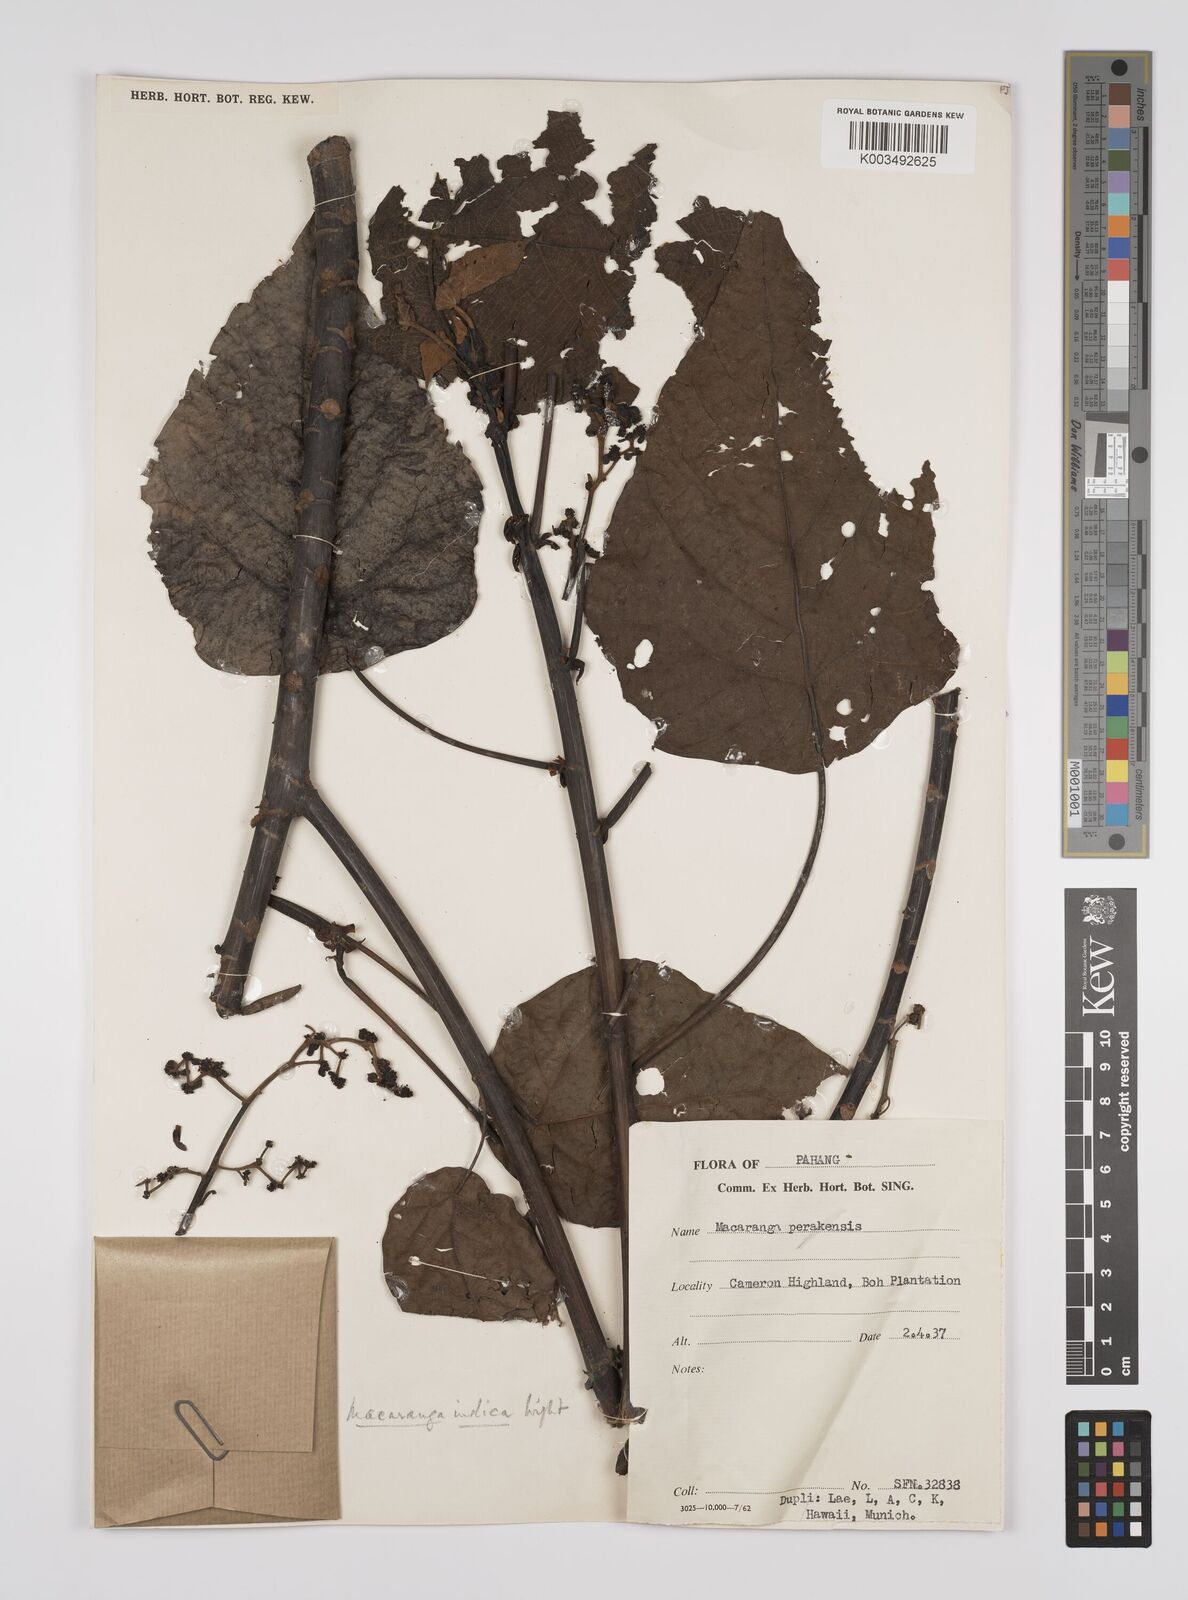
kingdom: Plantae
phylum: Tracheophyta
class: Magnoliopsida
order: Malpighiales
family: Euphorbiaceae
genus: Macaranga
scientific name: Macaranga indica
